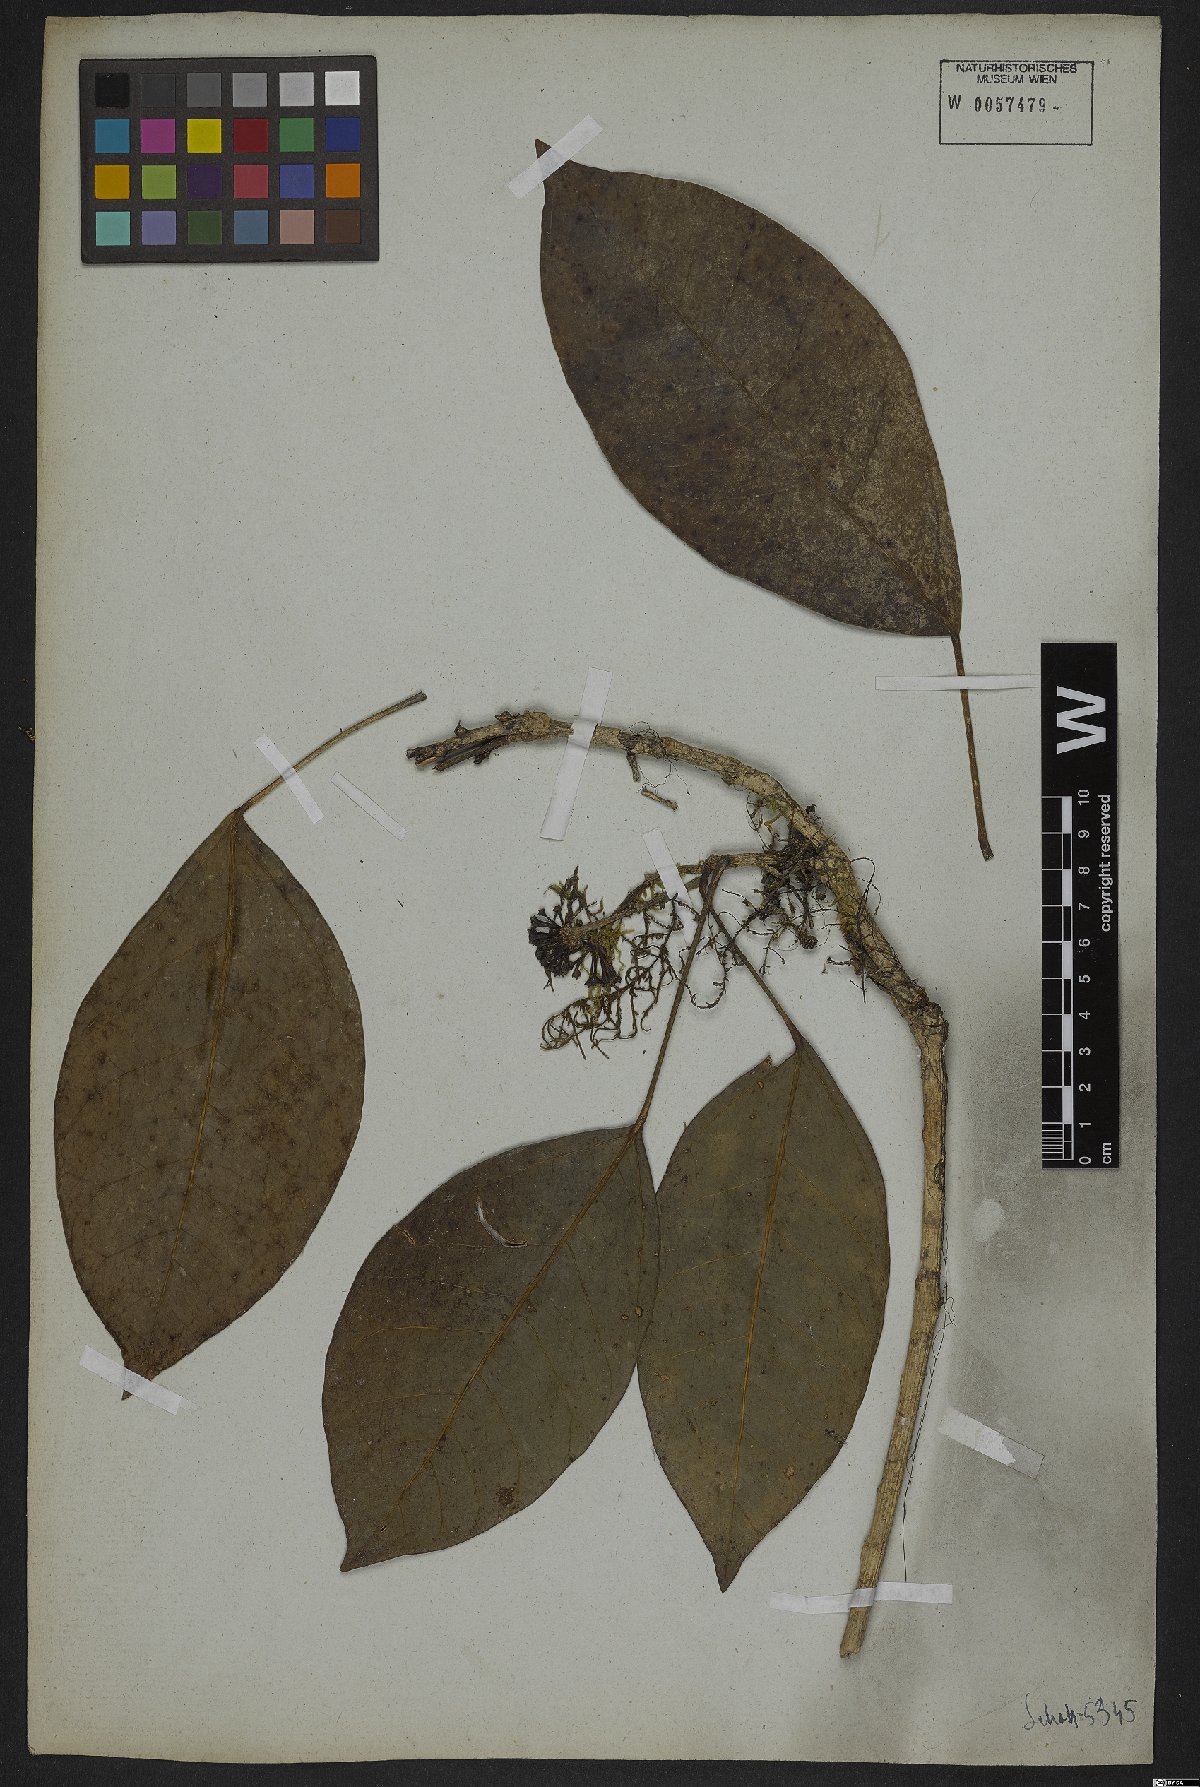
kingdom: Plantae
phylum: Tracheophyta
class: Magnoliopsida
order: Apiales
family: Araliaceae
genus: Dendropanax
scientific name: Dendropanax trilobus
